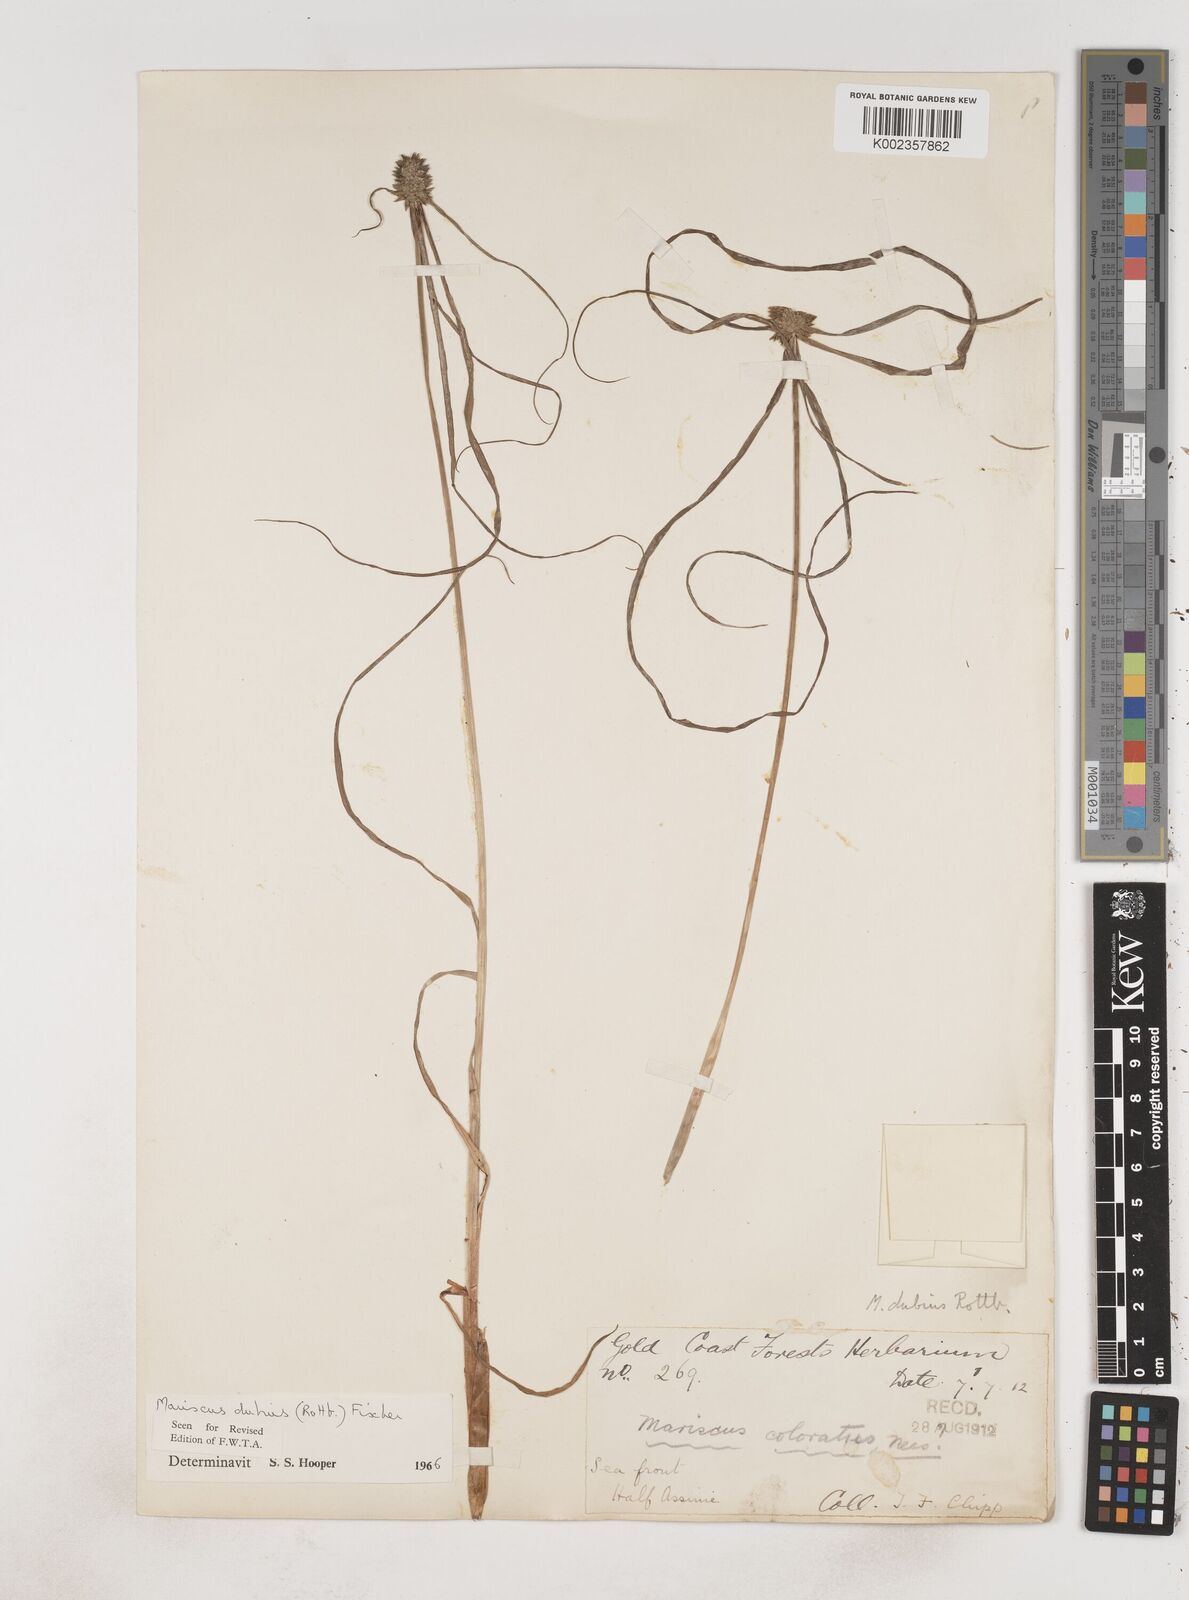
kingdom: Plantae
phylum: Tracheophyta
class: Liliopsida
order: Poales
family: Cyperaceae
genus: Cyperus
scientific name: Cyperus dubius
